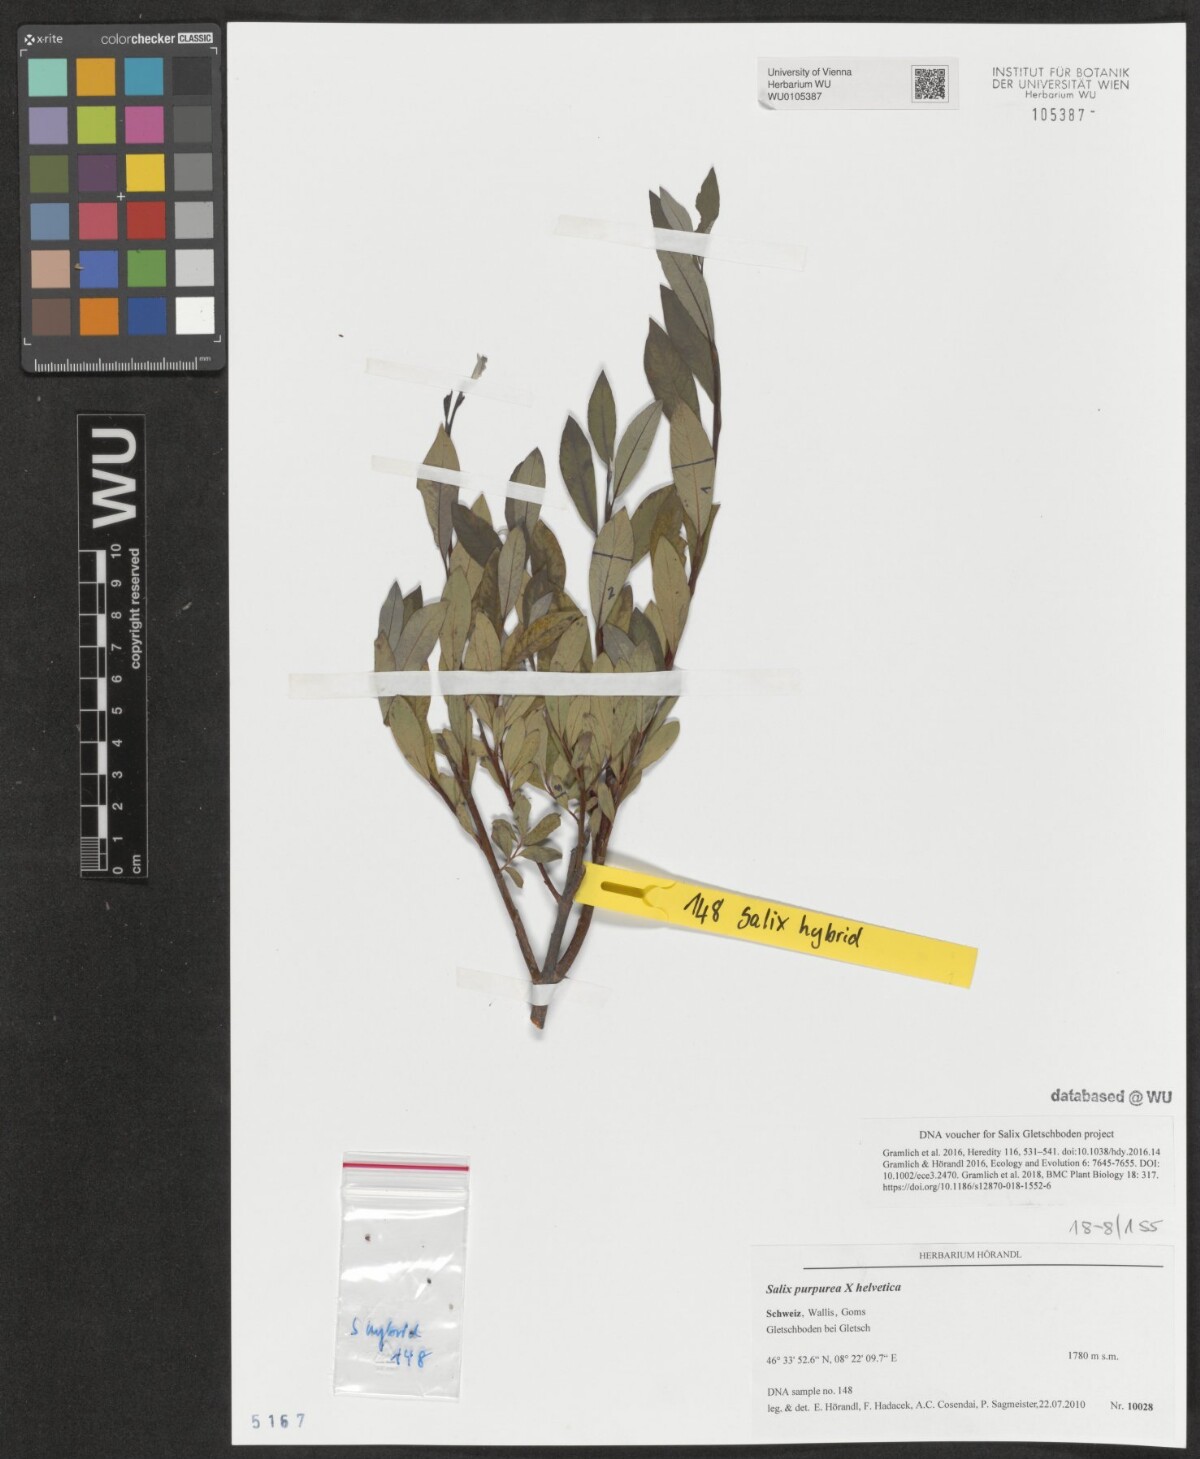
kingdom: Plantae
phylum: Tracheophyta
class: Magnoliopsida
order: Malpighiales
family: Salicaceae
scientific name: Salicaceae
